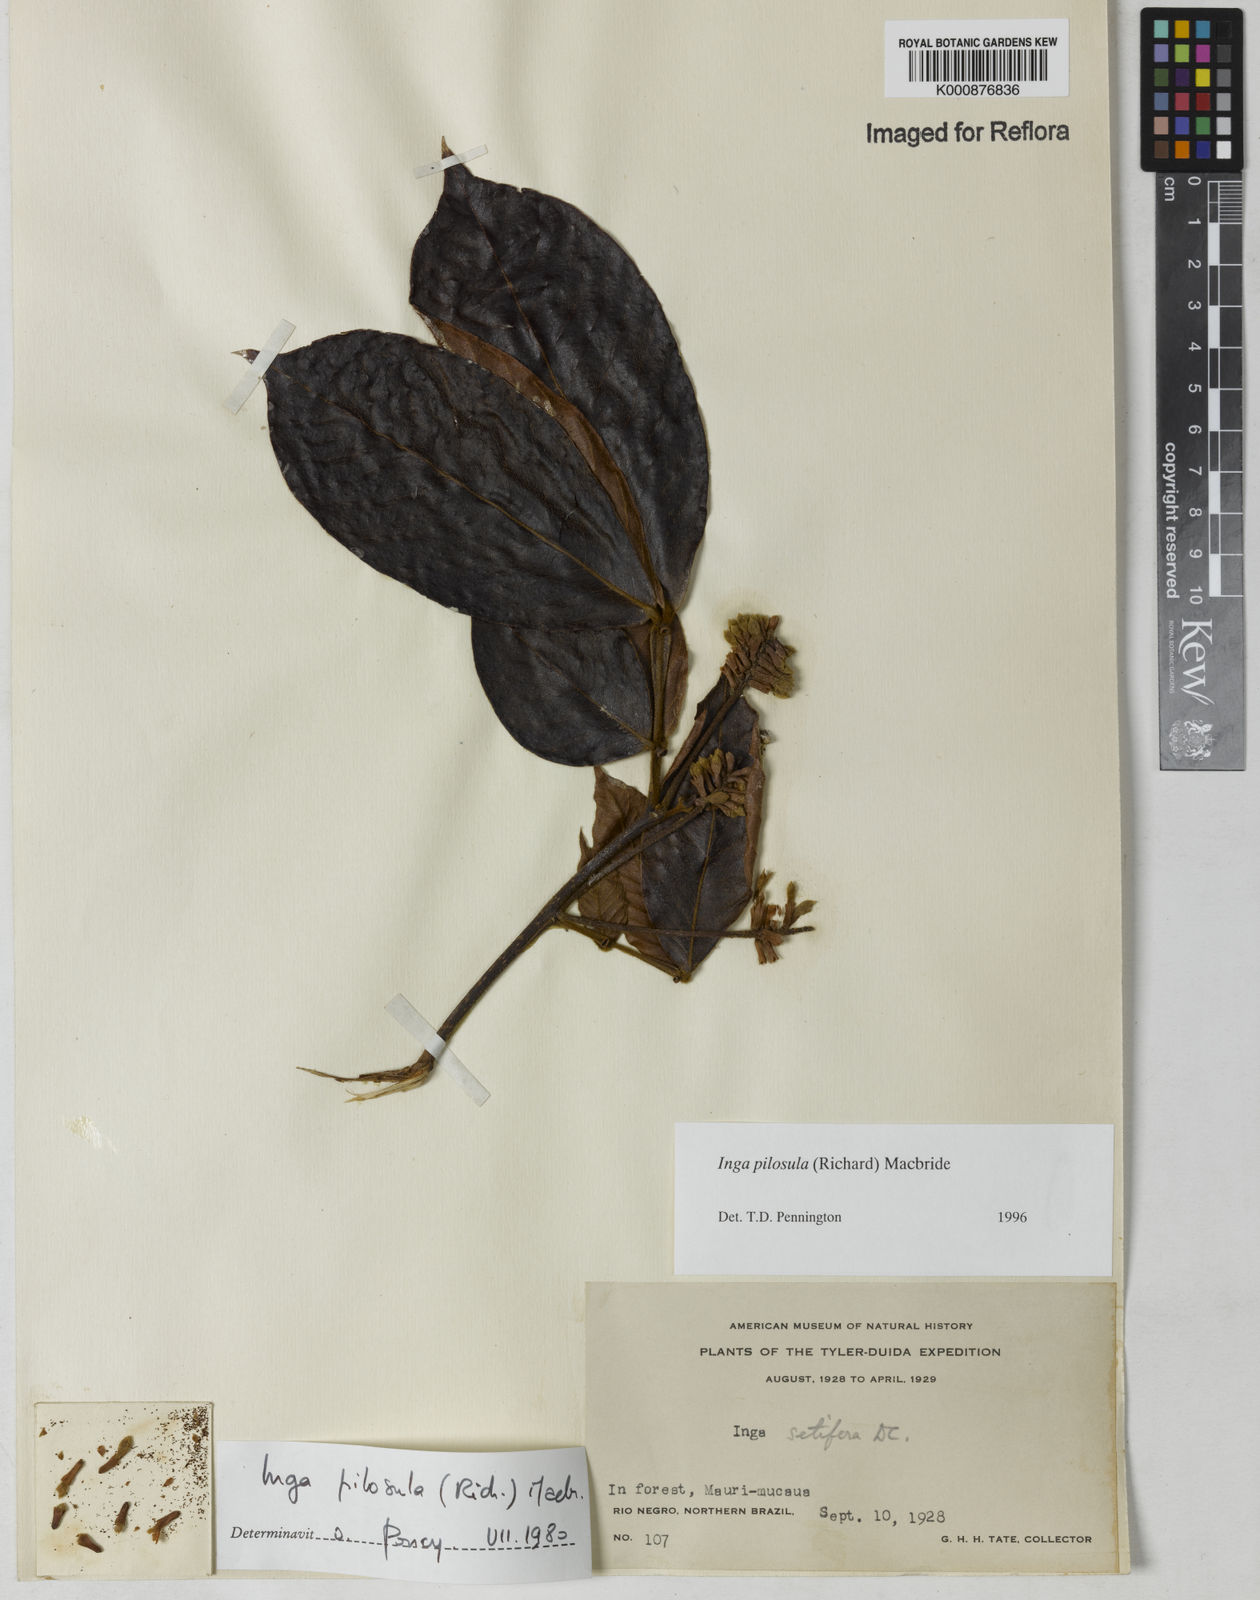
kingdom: Plantae
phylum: Tracheophyta
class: Magnoliopsida
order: Fabales
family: Fabaceae
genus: Inga
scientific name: Inga pilosula
